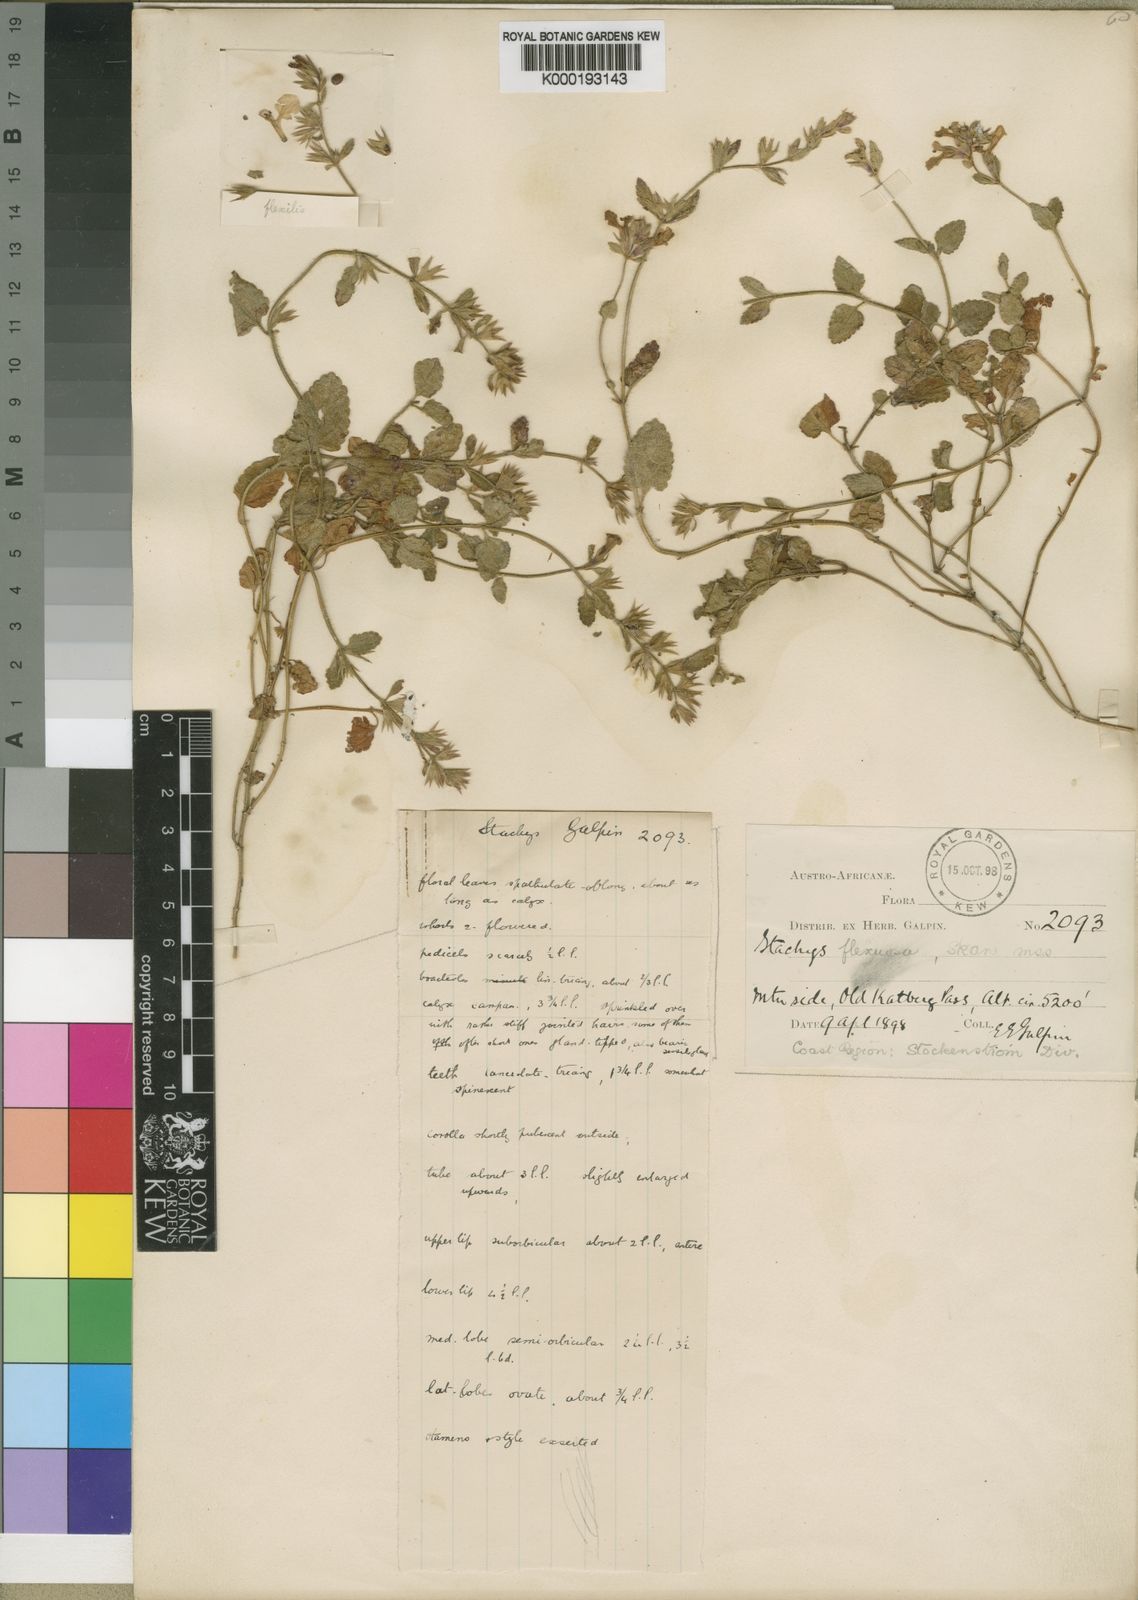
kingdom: Plantae
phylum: Tracheophyta
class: Magnoliopsida
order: Lamiales
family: Lamiaceae
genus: Stachys
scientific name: Stachys flexuosa
